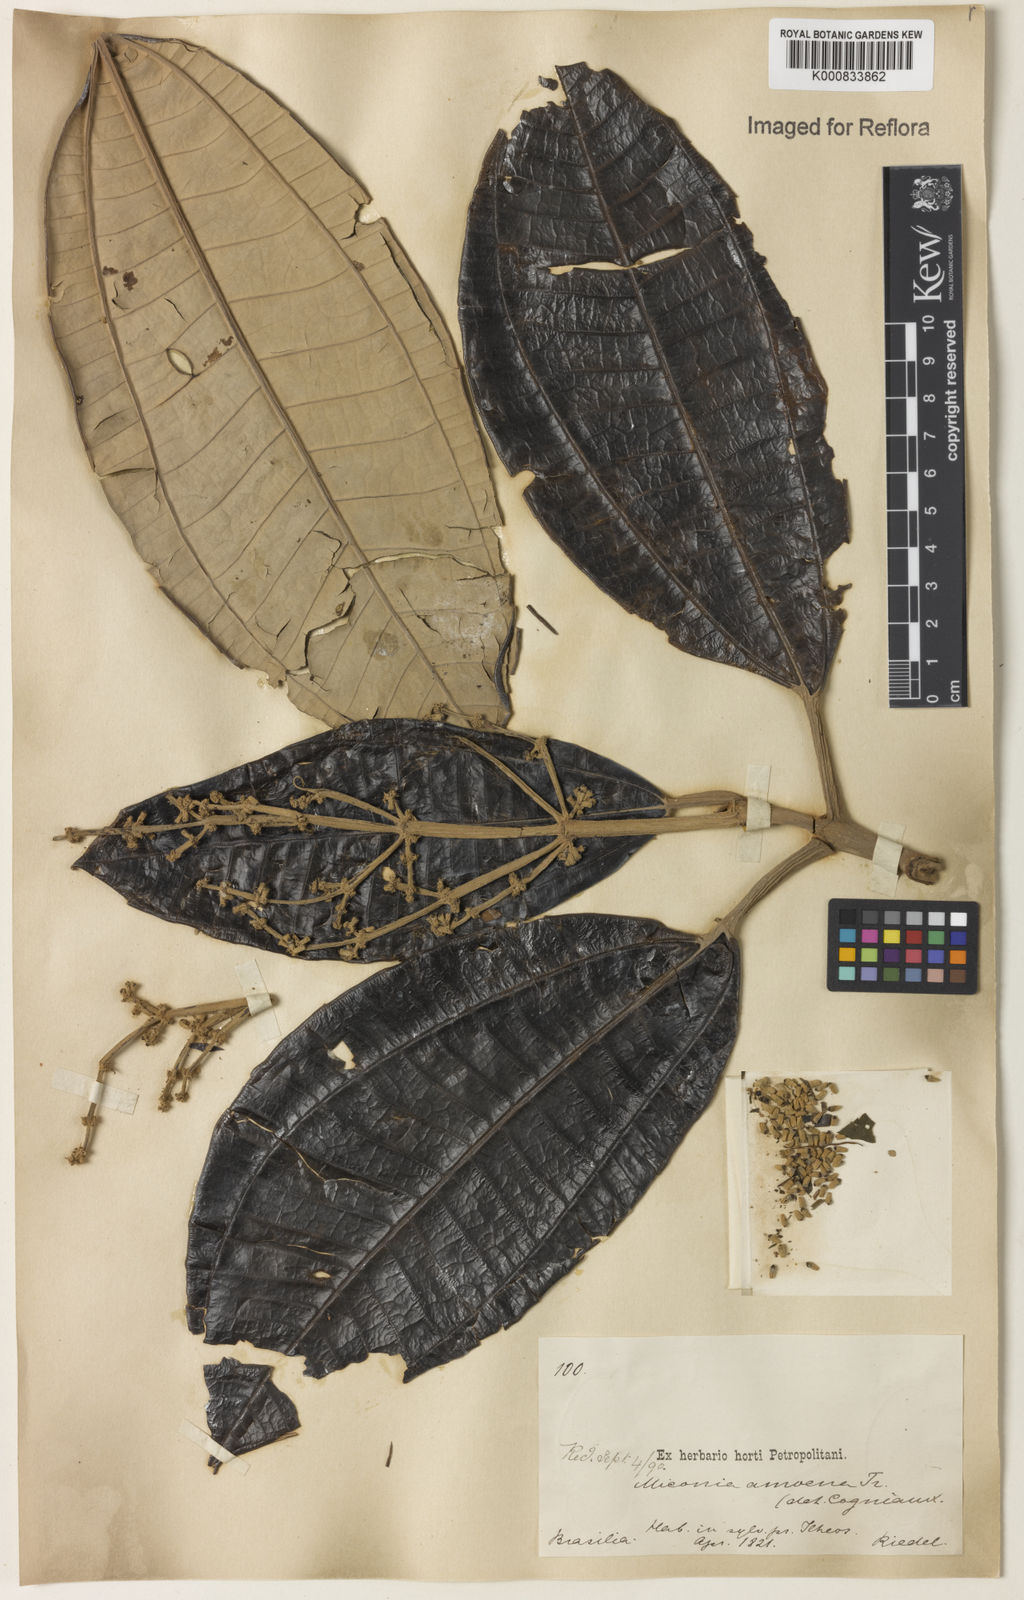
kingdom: Plantae
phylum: Tracheophyta
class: Magnoliopsida
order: Myrtales
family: Melastomataceae
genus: Miconia
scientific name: Miconia amoena
